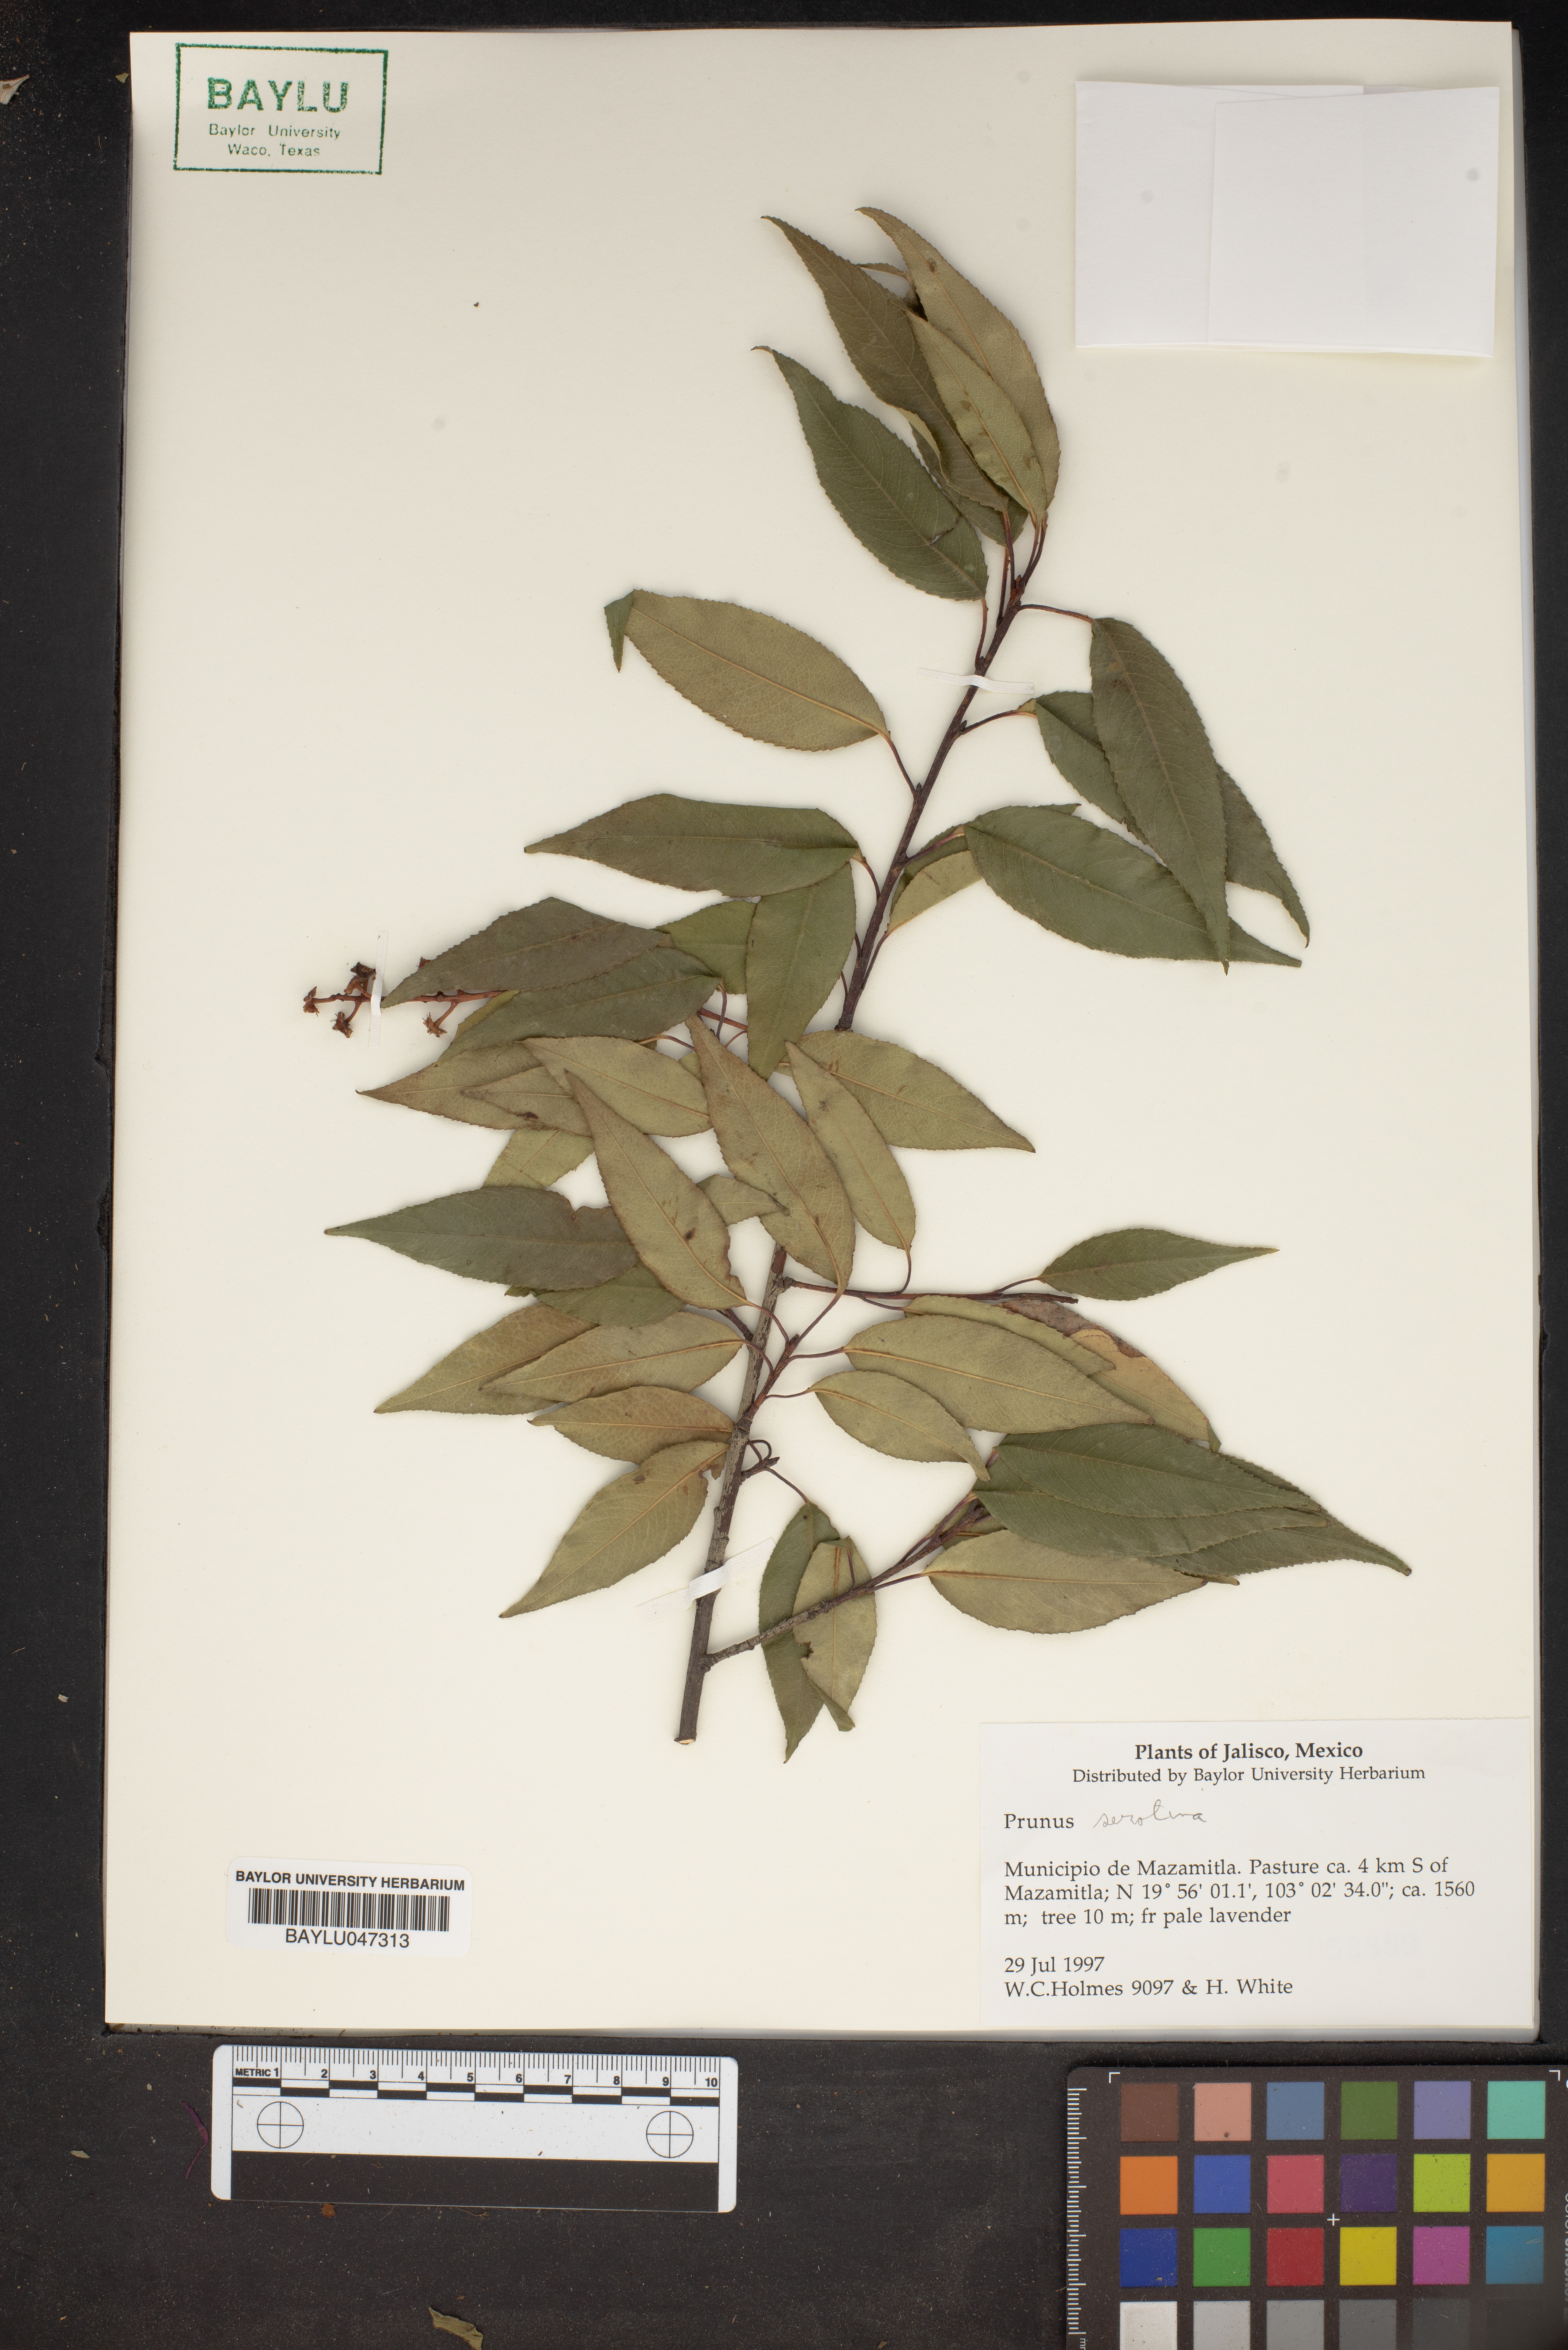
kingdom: Plantae
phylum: Tracheophyta
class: Magnoliopsida
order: Rosales
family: Rosaceae
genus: Prunus
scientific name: Prunus serotina
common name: Black cherry
